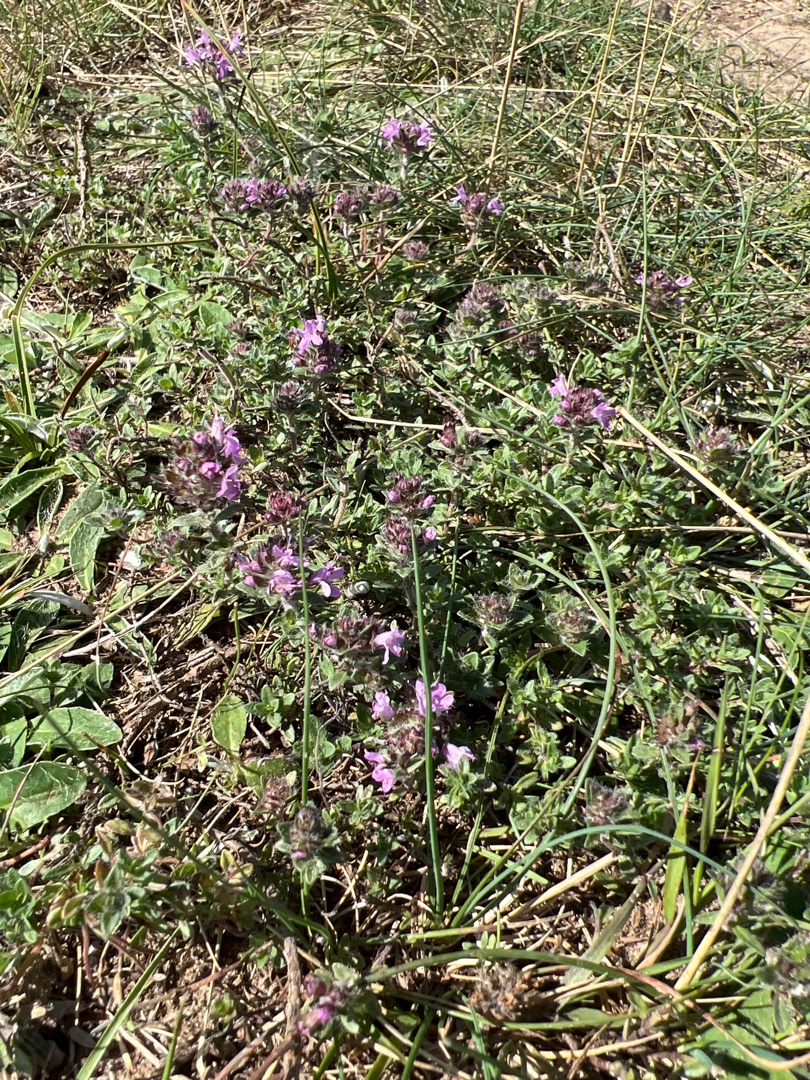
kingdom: Plantae
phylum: Tracheophyta
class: Magnoliopsida
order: Lamiales
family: Lamiaceae
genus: Thymus
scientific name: Thymus serpyllum
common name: Smalbladet timian
